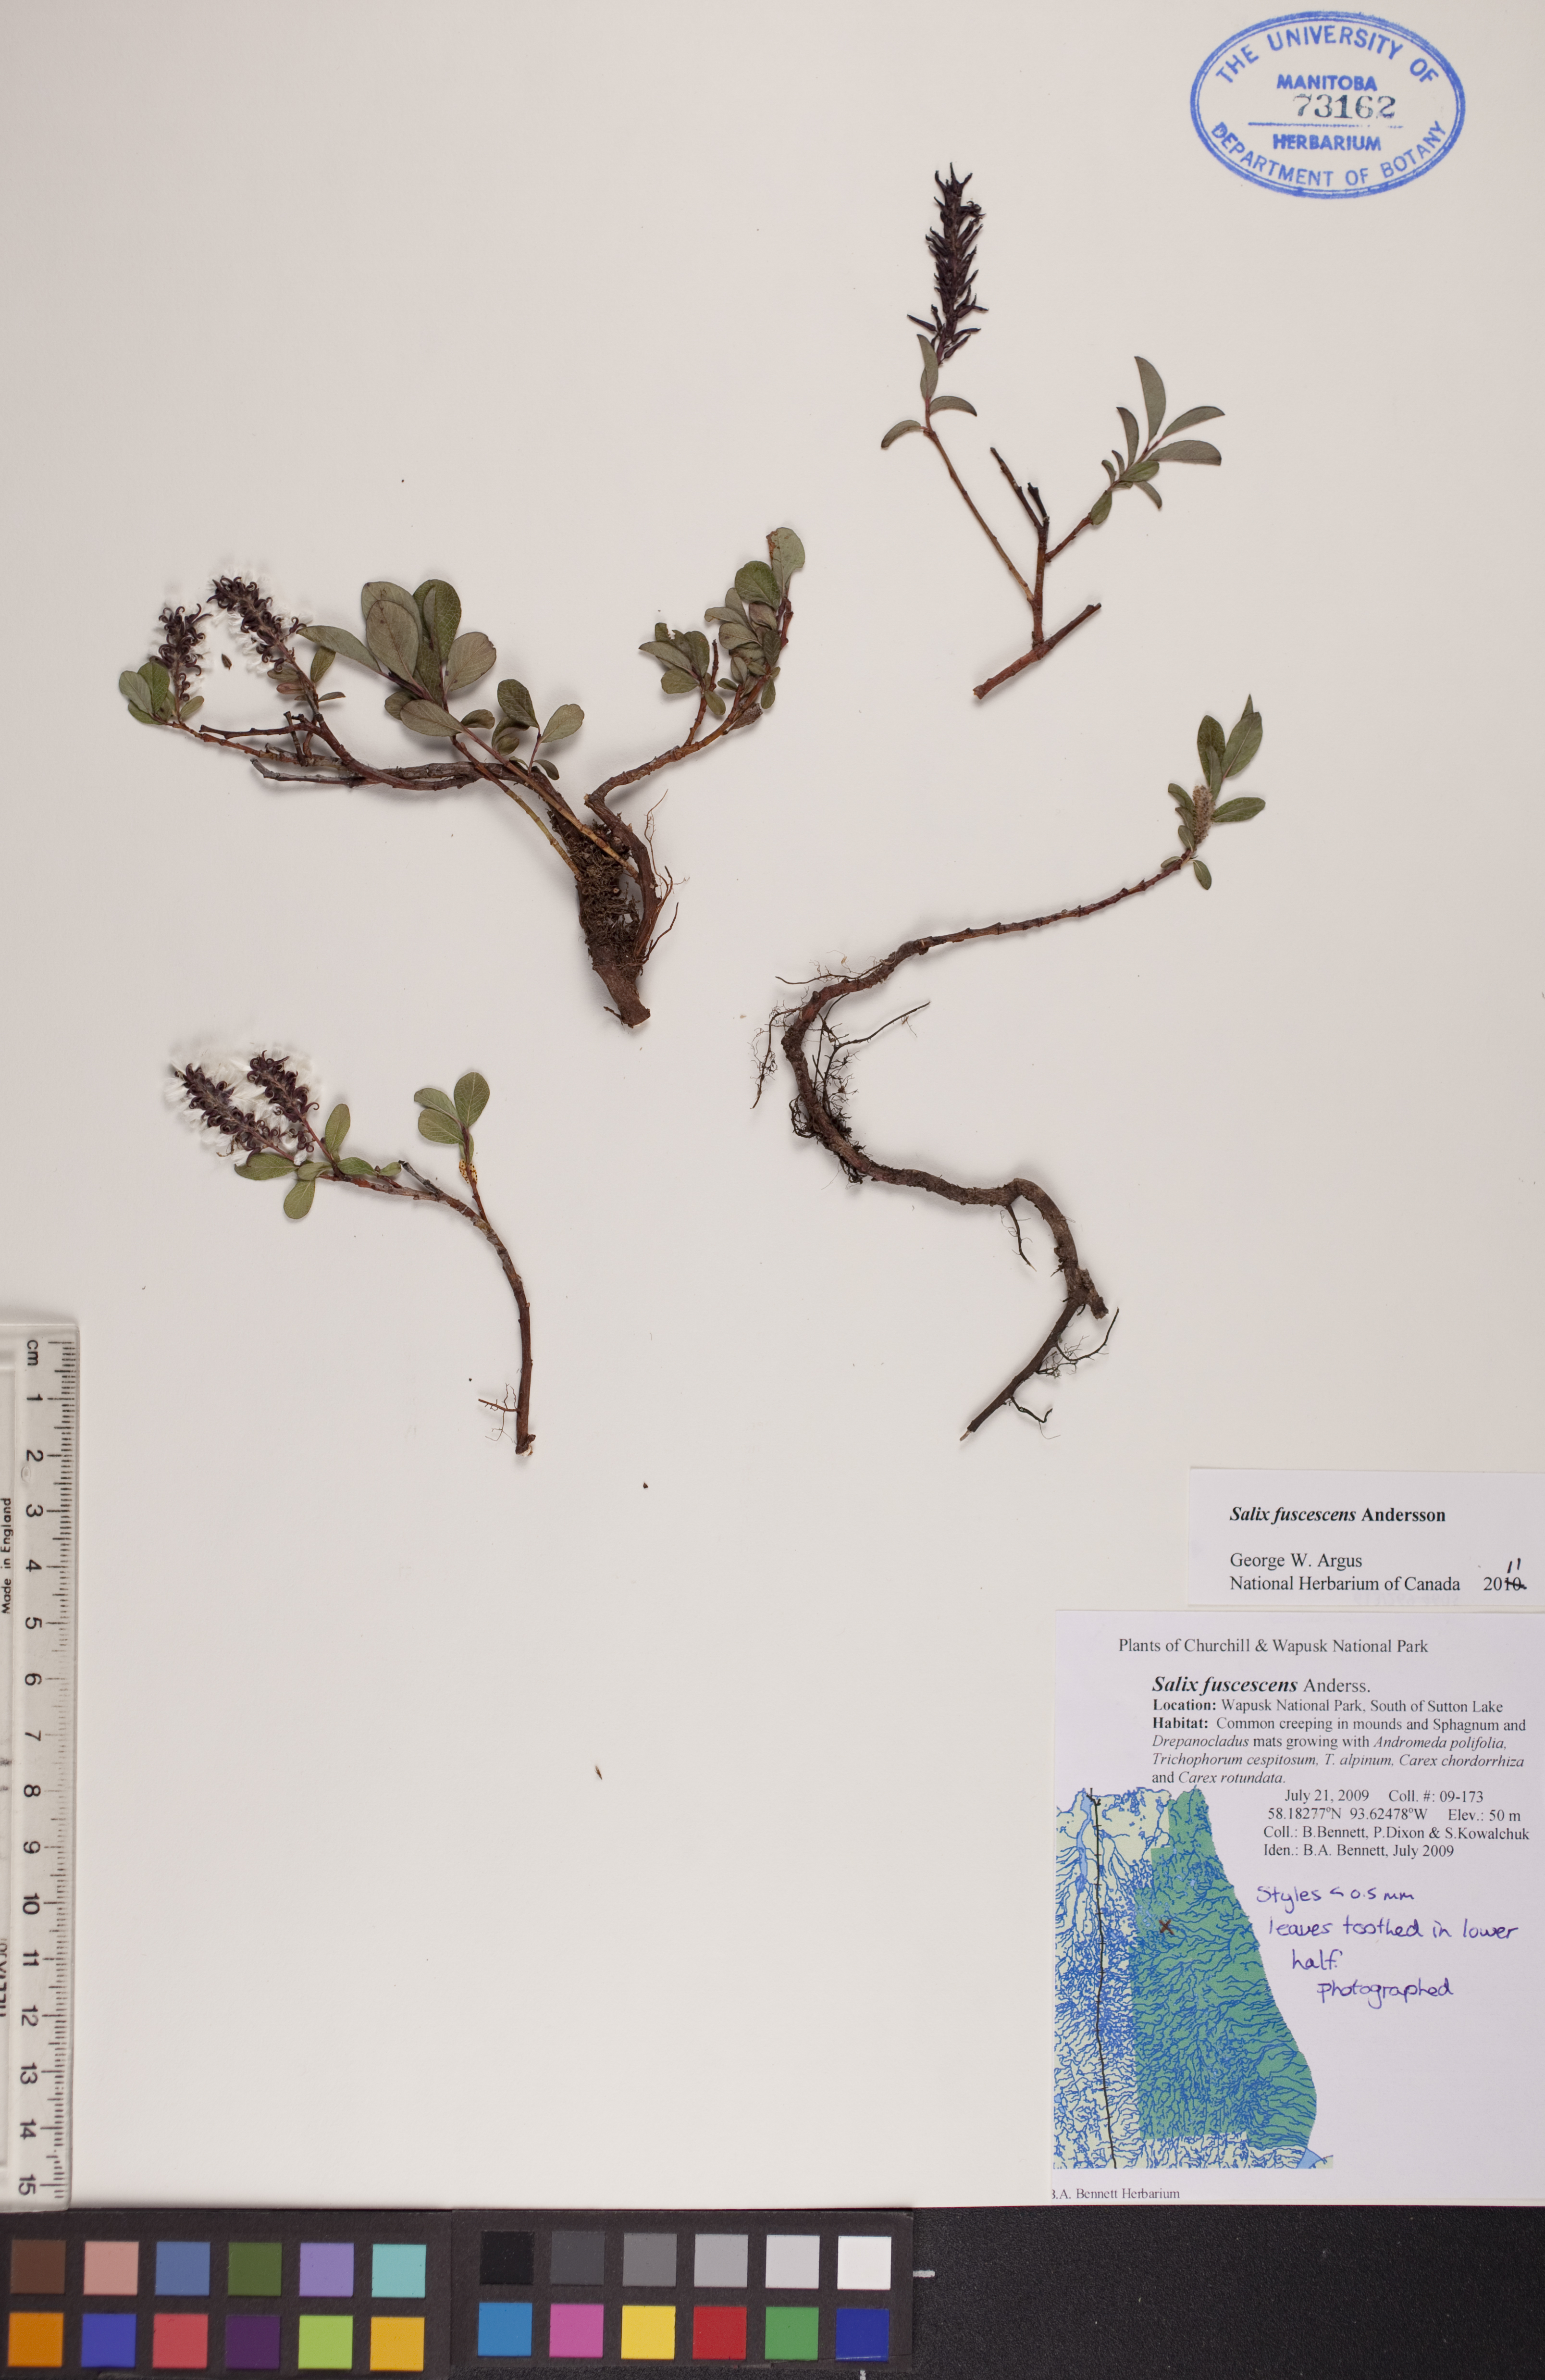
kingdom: Plantae
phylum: Tracheophyta
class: Magnoliopsida
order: Malpighiales
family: Salicaceae
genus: Salix
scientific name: Salix fuscescens
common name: Brownish willow
